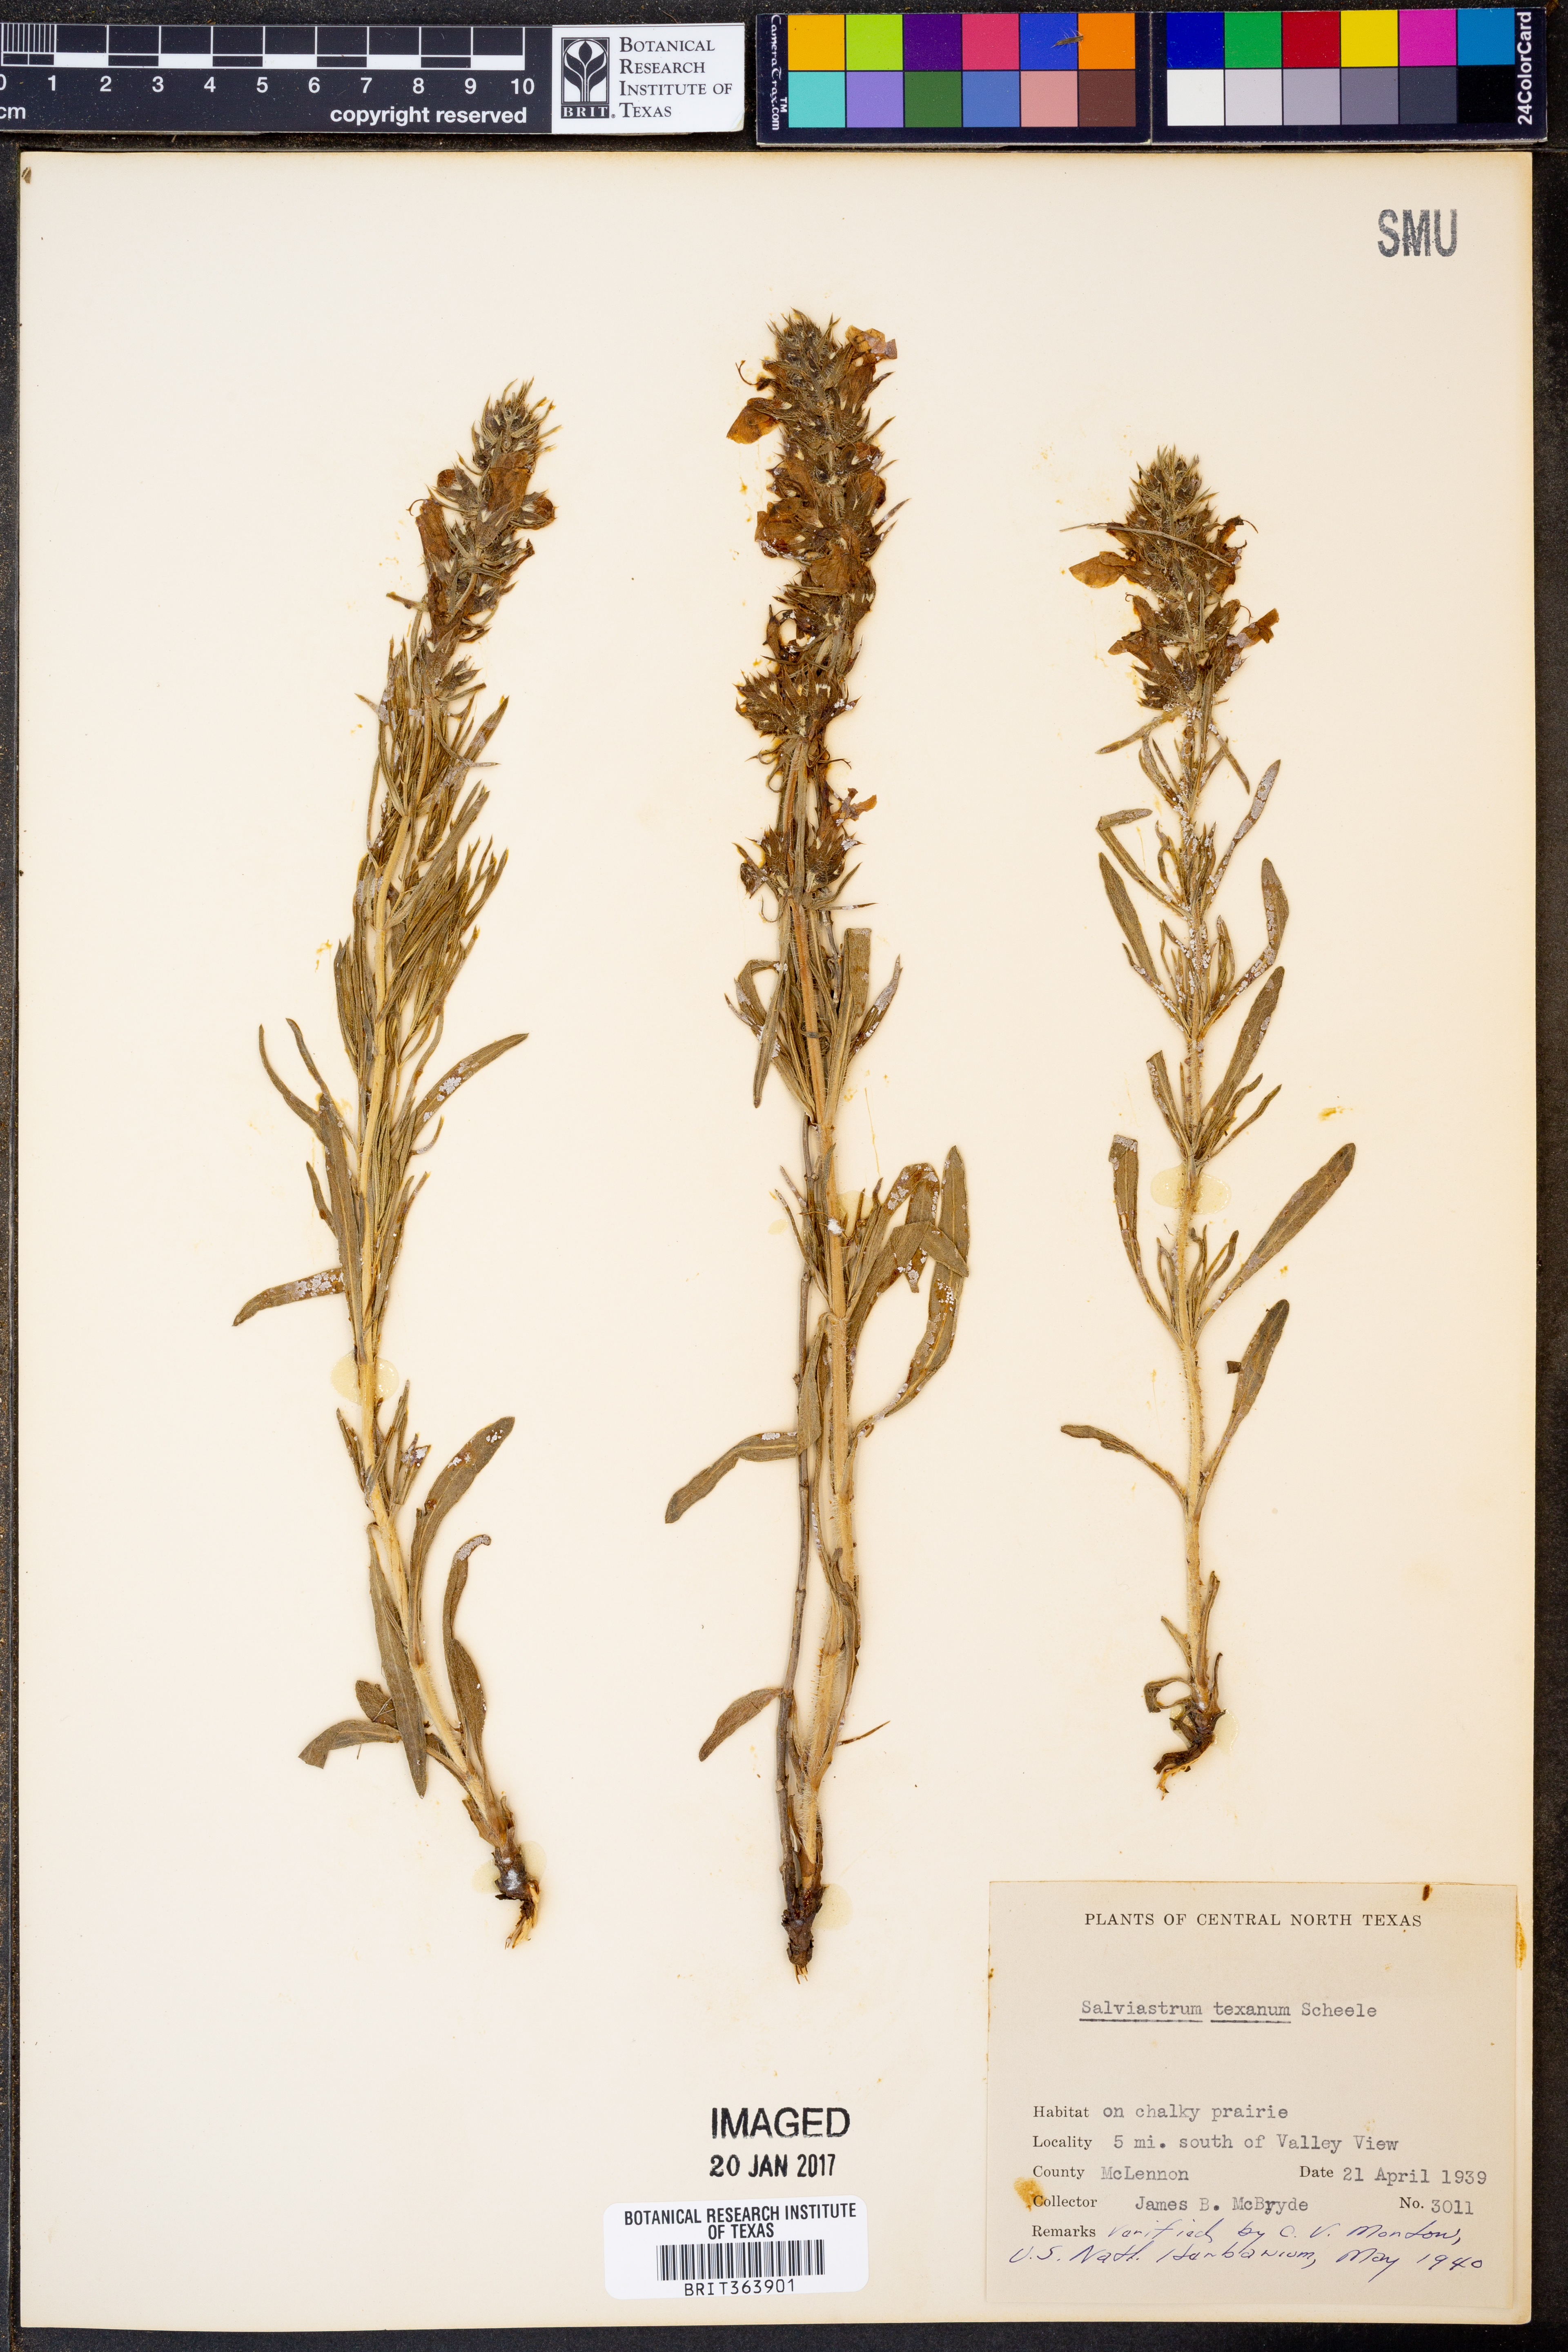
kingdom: Plantae
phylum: Tracheophyta
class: Magnoliopsida
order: Lamiales
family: Lamiaceae
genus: Salvia
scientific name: Salvia texana
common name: Texas sage
